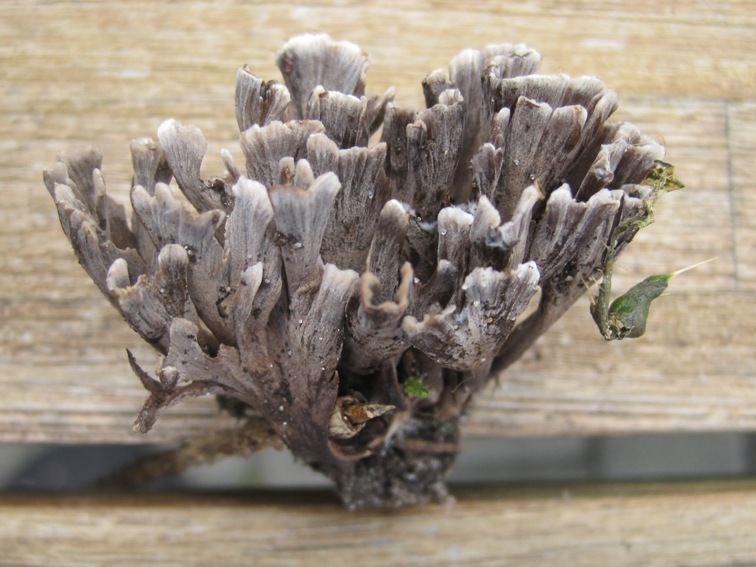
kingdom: Fungi
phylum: Basidiomycota
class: Agaricomycetes
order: Thelephorales
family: Thelephoraceae
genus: Thelephora
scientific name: Thelephora palmata
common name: grenet frynsesvamp
